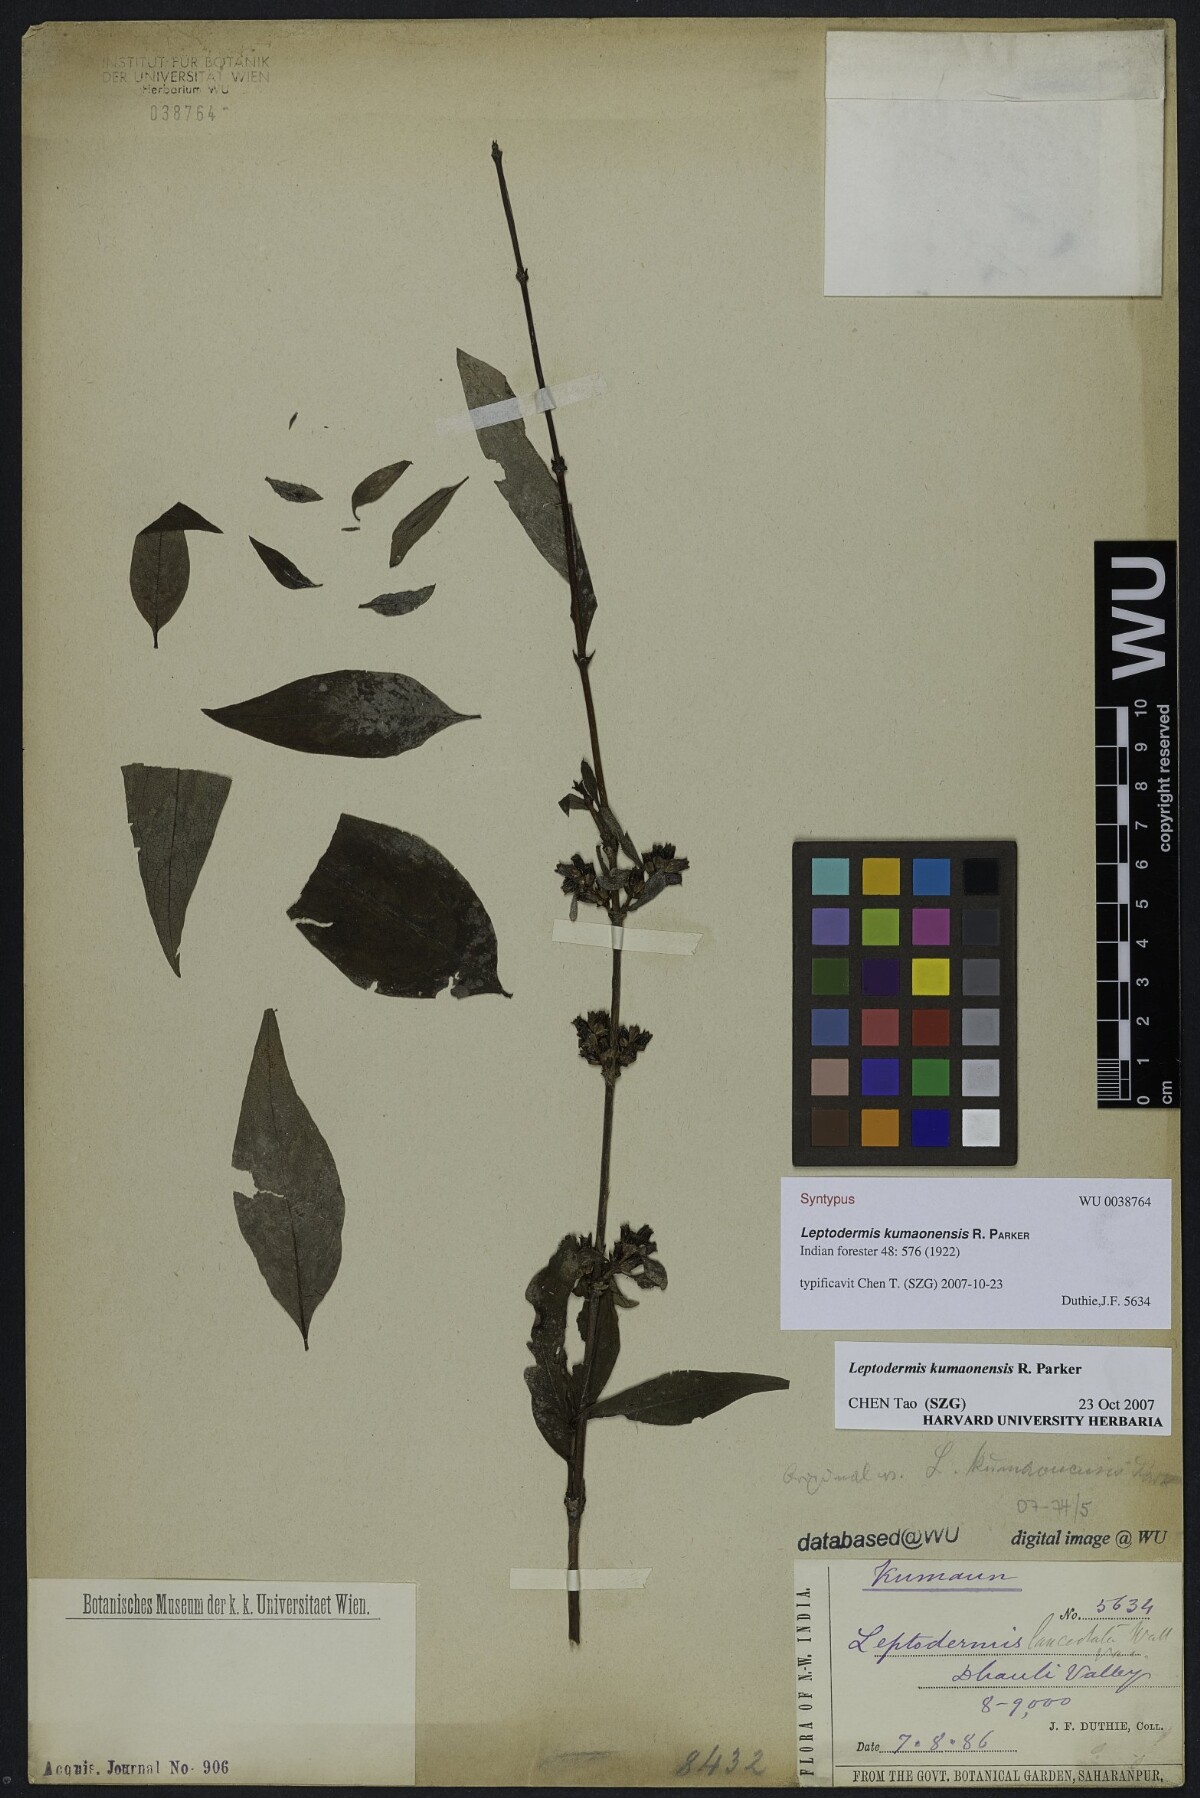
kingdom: Plantae
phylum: Tracheophyta
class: Magnoliopsida
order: Gentianales
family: Rubiaceae
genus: Leptodermis
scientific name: Leptodermis kumaonensis
